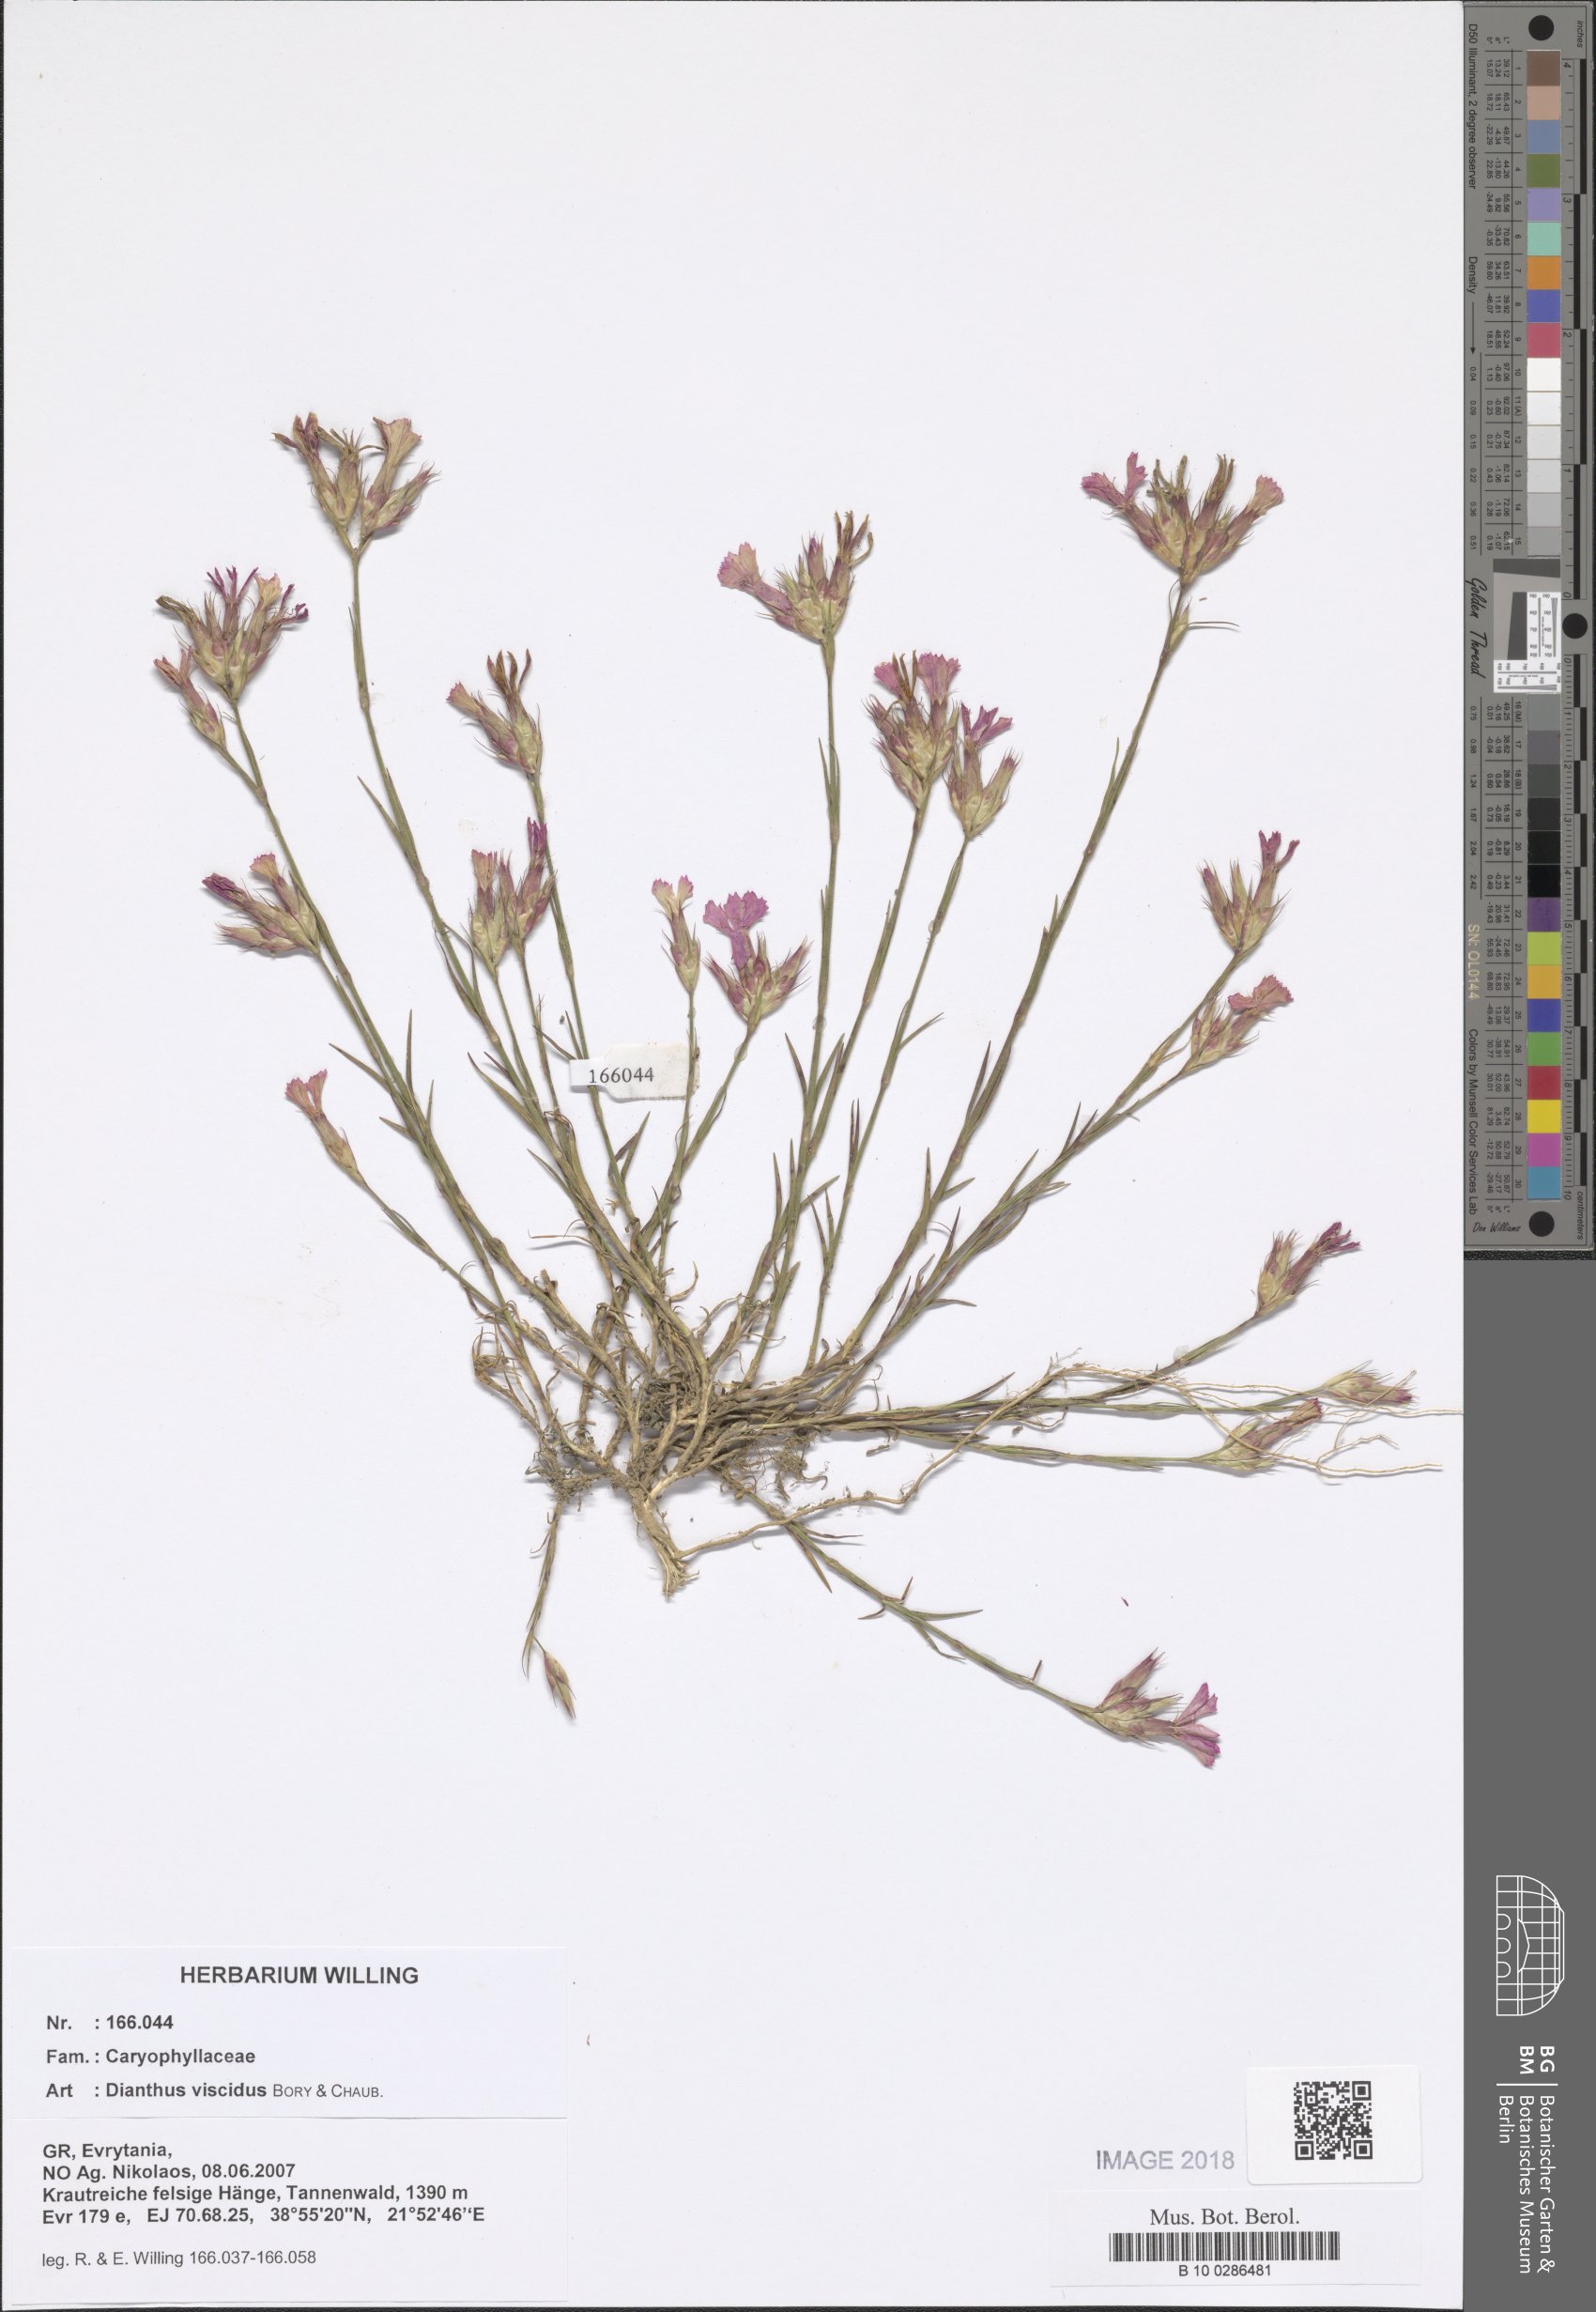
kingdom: Plantae
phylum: Tracheophyta
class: Magnoliopsida
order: Caryophyllales
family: Caryophyllaceae
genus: Dianthus
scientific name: Dianthus viscidus
